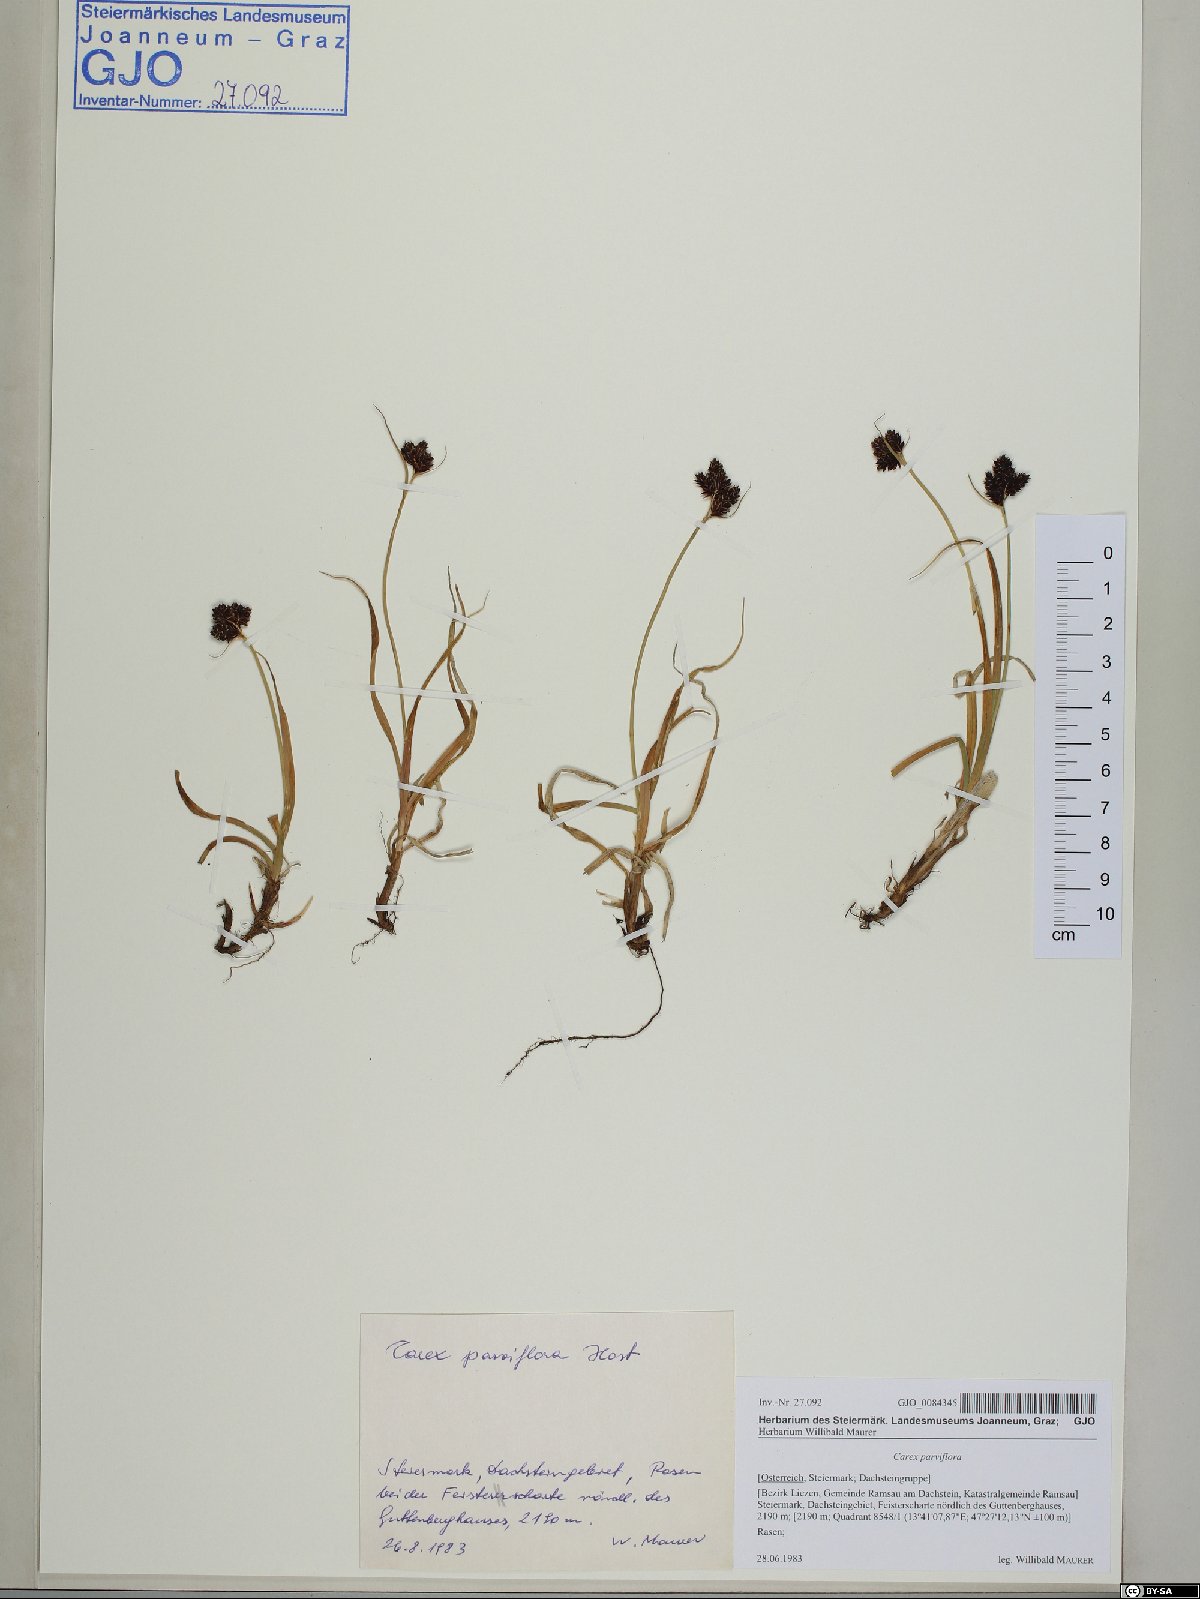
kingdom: Plantae
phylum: Tracheophyta
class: Liliopsida
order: Poales
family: Cyperaceae
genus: Carex
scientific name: Carex parviflora
